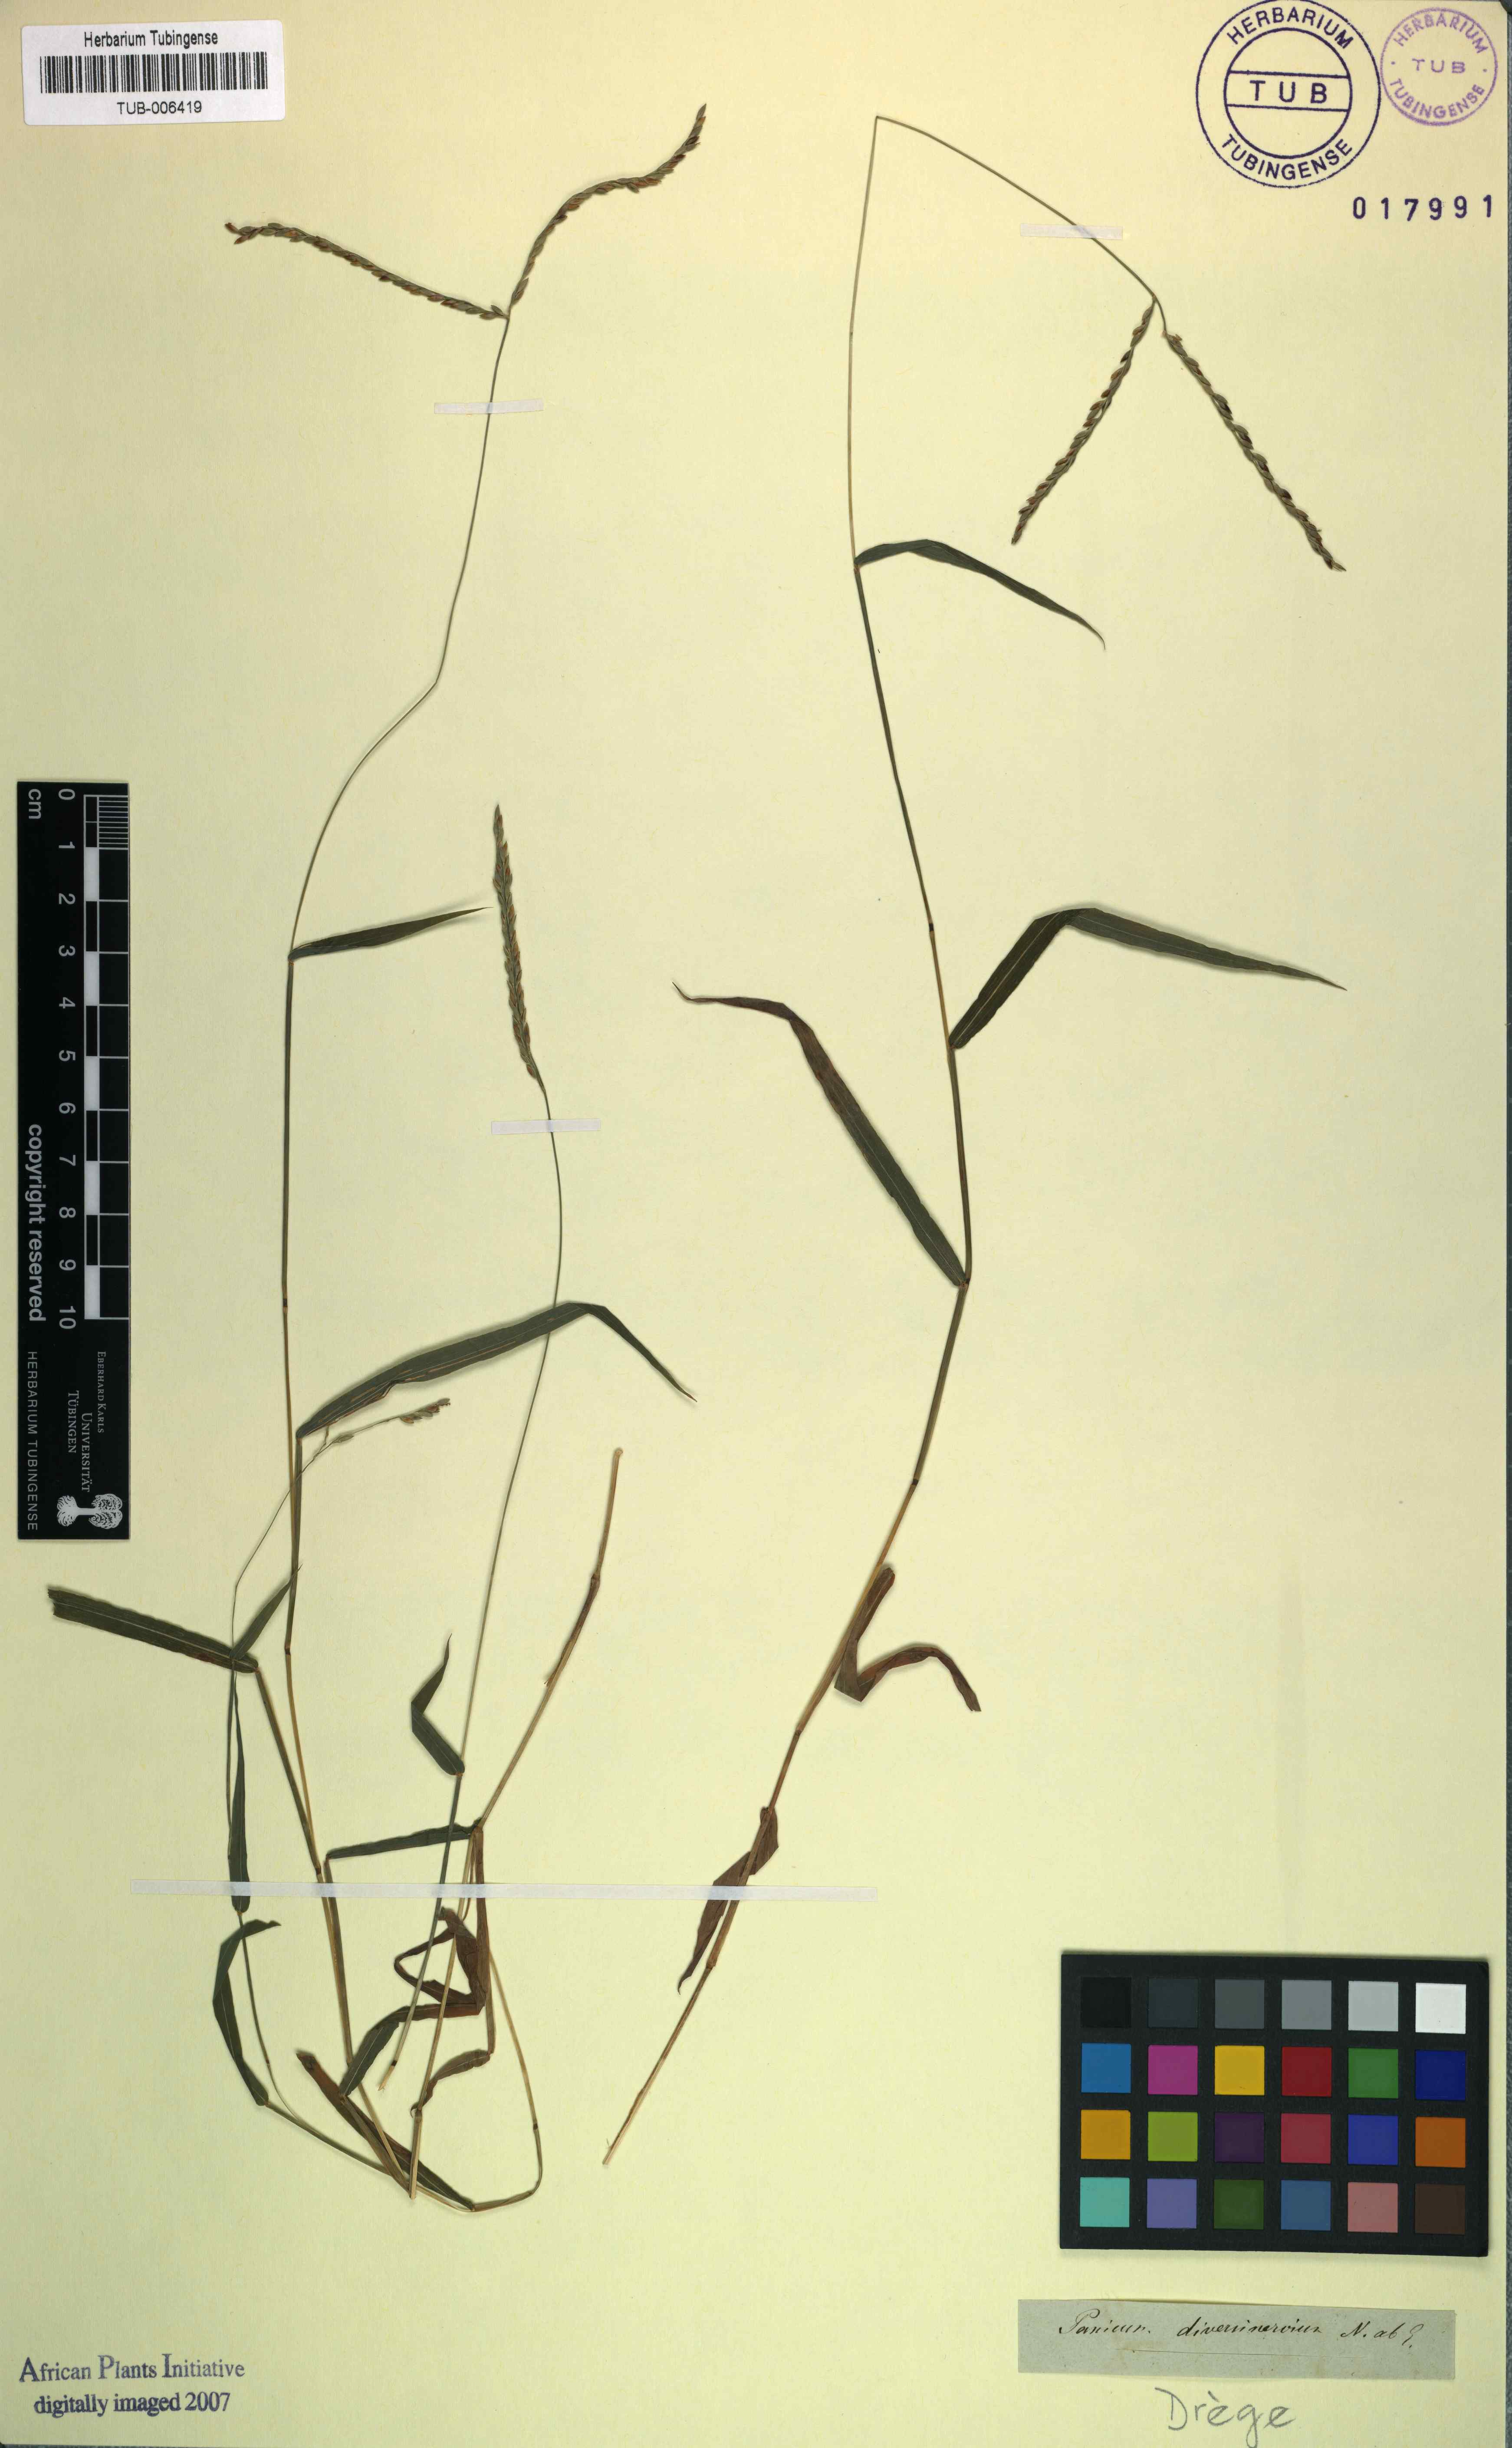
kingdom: Plantae
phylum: Tracheophyta
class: Liliopsida
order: Poales
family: Poaceae
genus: Digitaria
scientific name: Digitaria diversinervis
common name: Richmond finger grass
